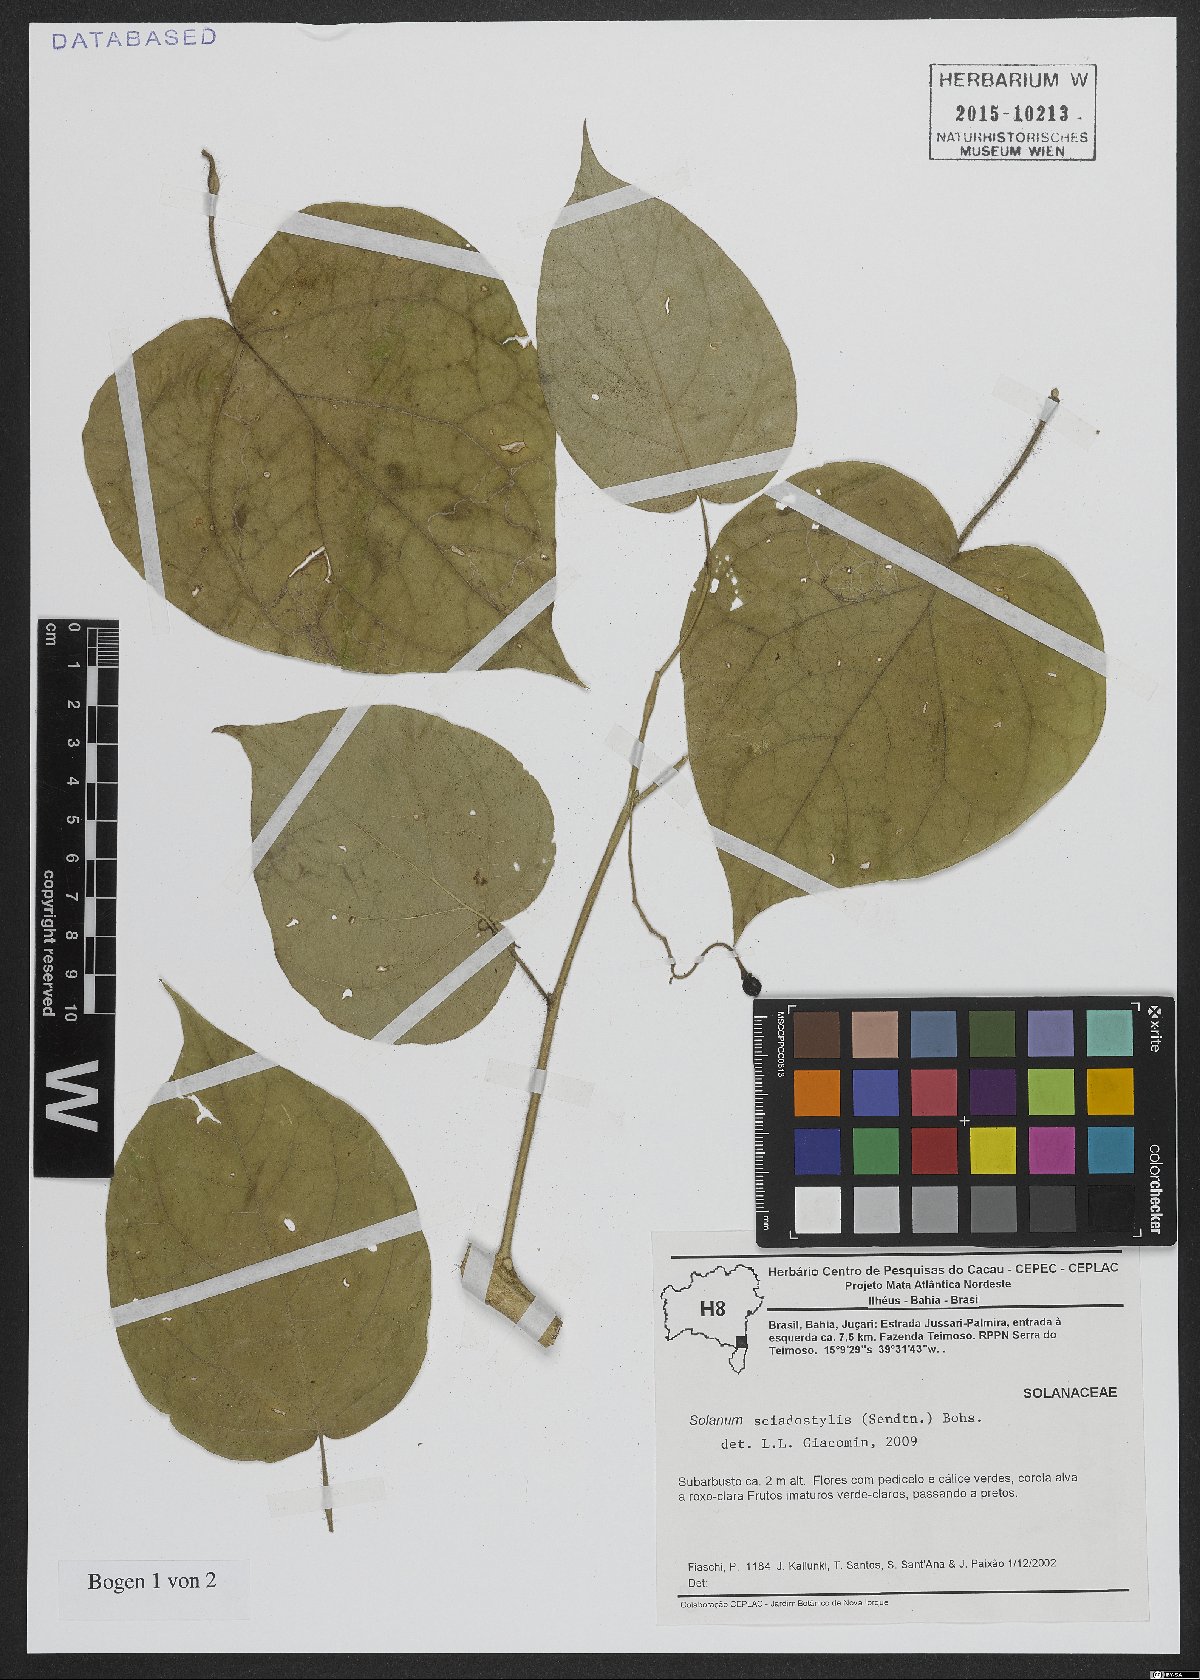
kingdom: Plantae
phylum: Tracheophyta
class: Magnoliopsida
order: Solanales
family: Solanaceae
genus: Solanum
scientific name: Solanum sciadostylis
